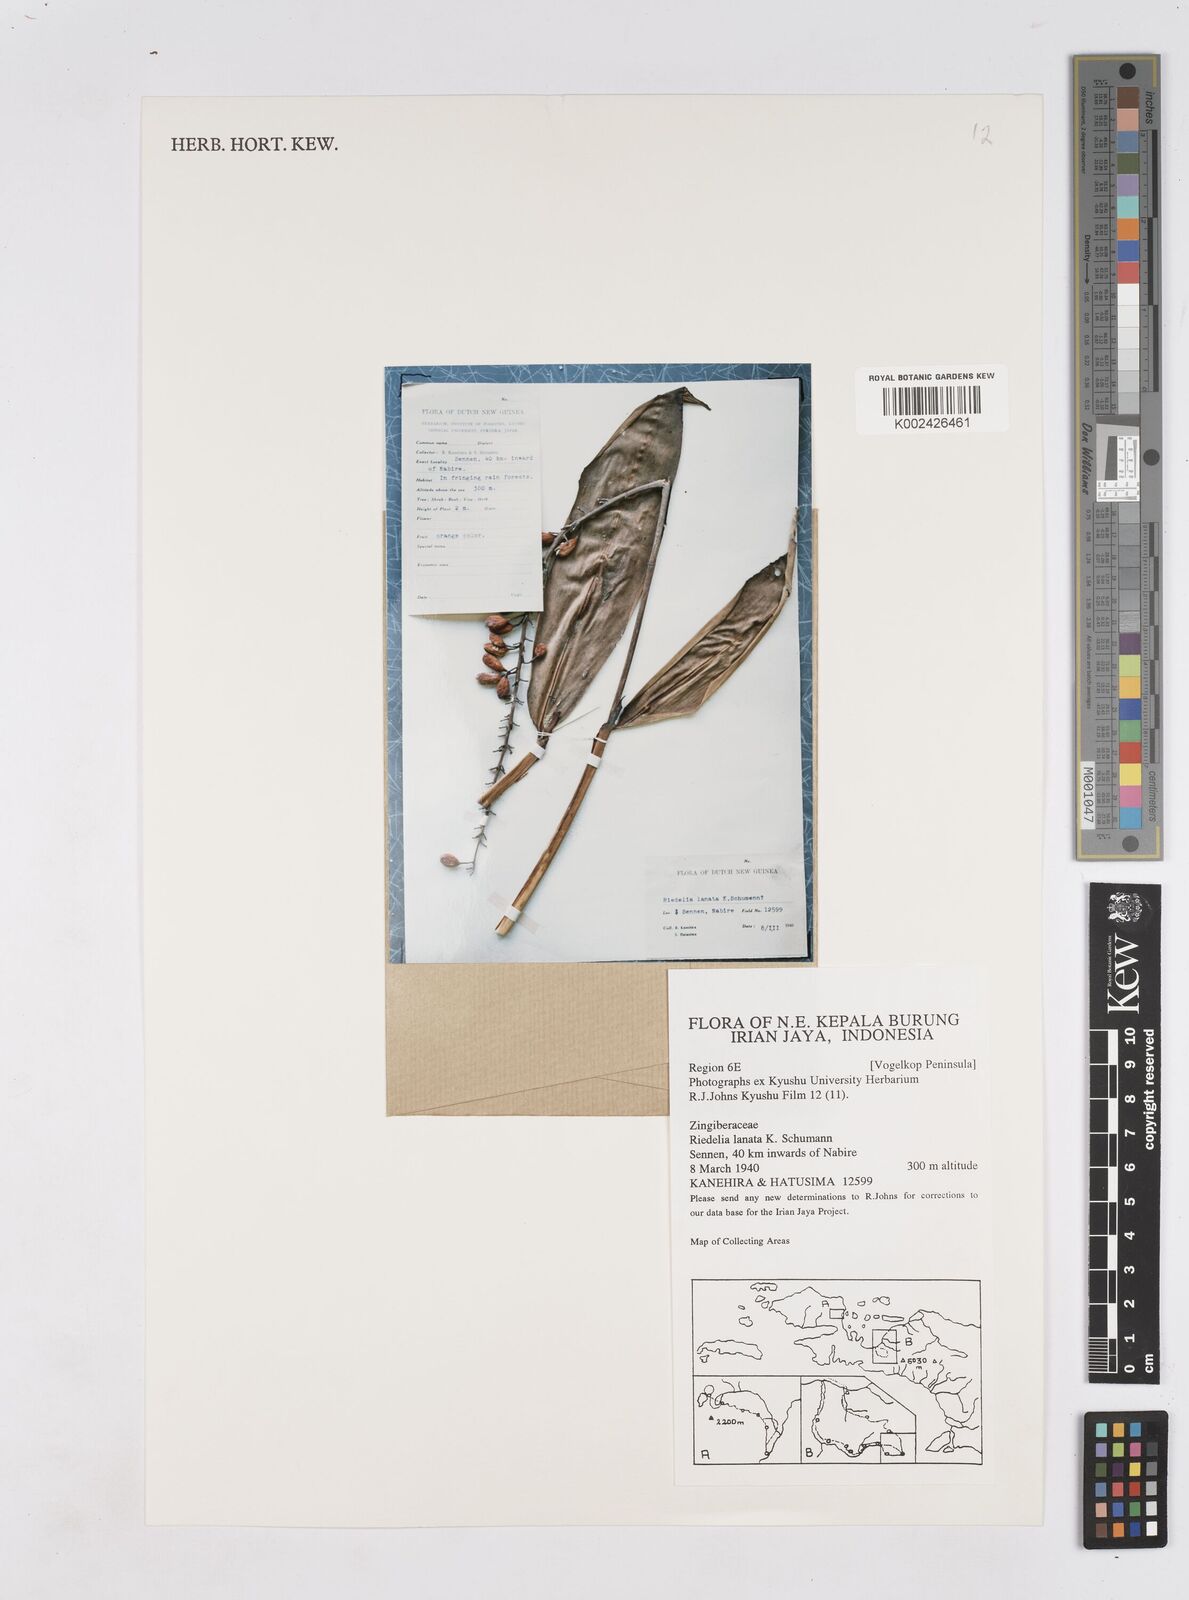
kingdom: Plantae
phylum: Tracheophyta
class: Liliopsida
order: Zingiberales
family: Zingiberaceae
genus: Riedelia
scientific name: Riedelia lanata
